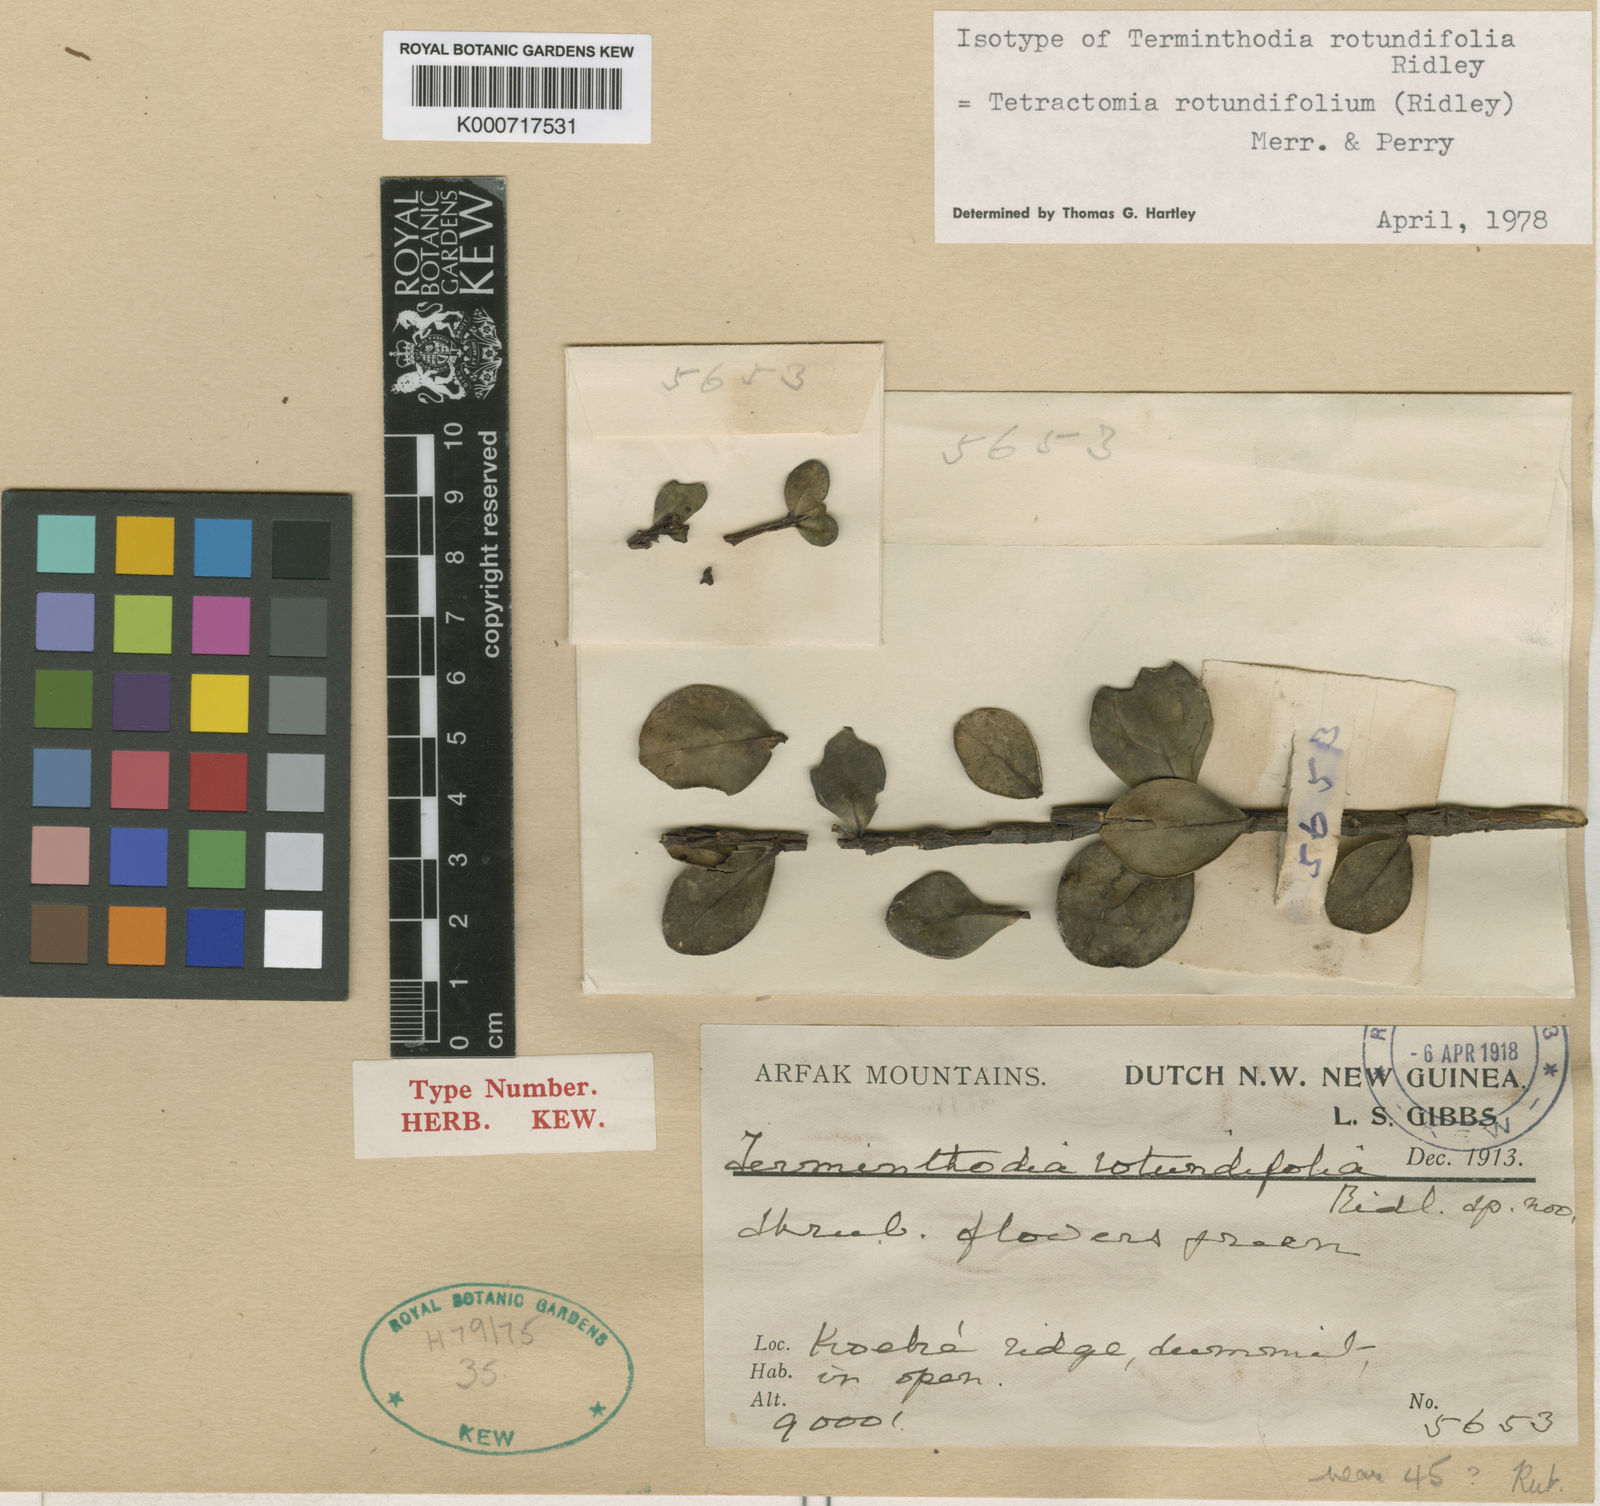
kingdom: Plantae
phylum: Tracheophyta
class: Magnoliopsida
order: Sapindales
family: Rutaceae
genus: Tetractomia
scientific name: Tetractomia rotundifolia
